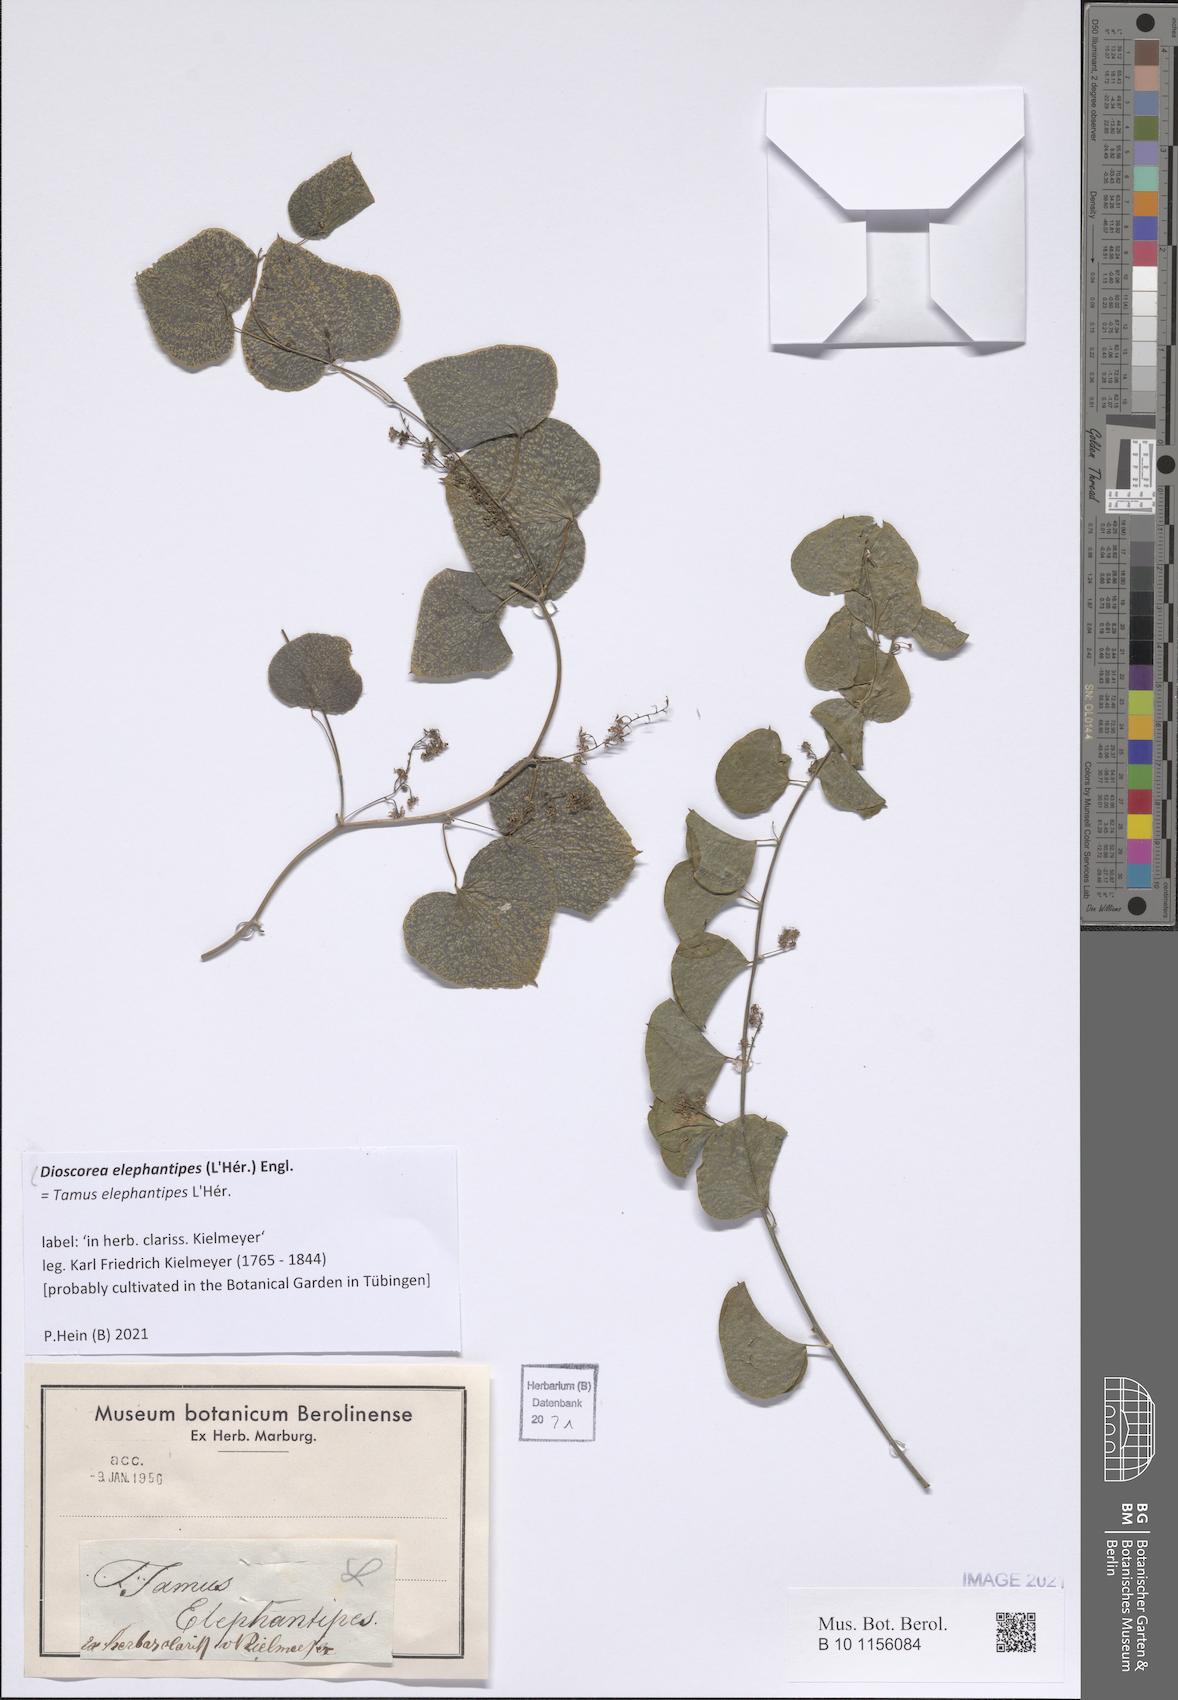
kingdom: Plantae
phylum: Tracheophyta
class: Liliopsida
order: Dioscoreales
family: Dioscoreaceae
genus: Dioscorea
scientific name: Dioscorea elephantipes
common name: Elephant's foot yam
